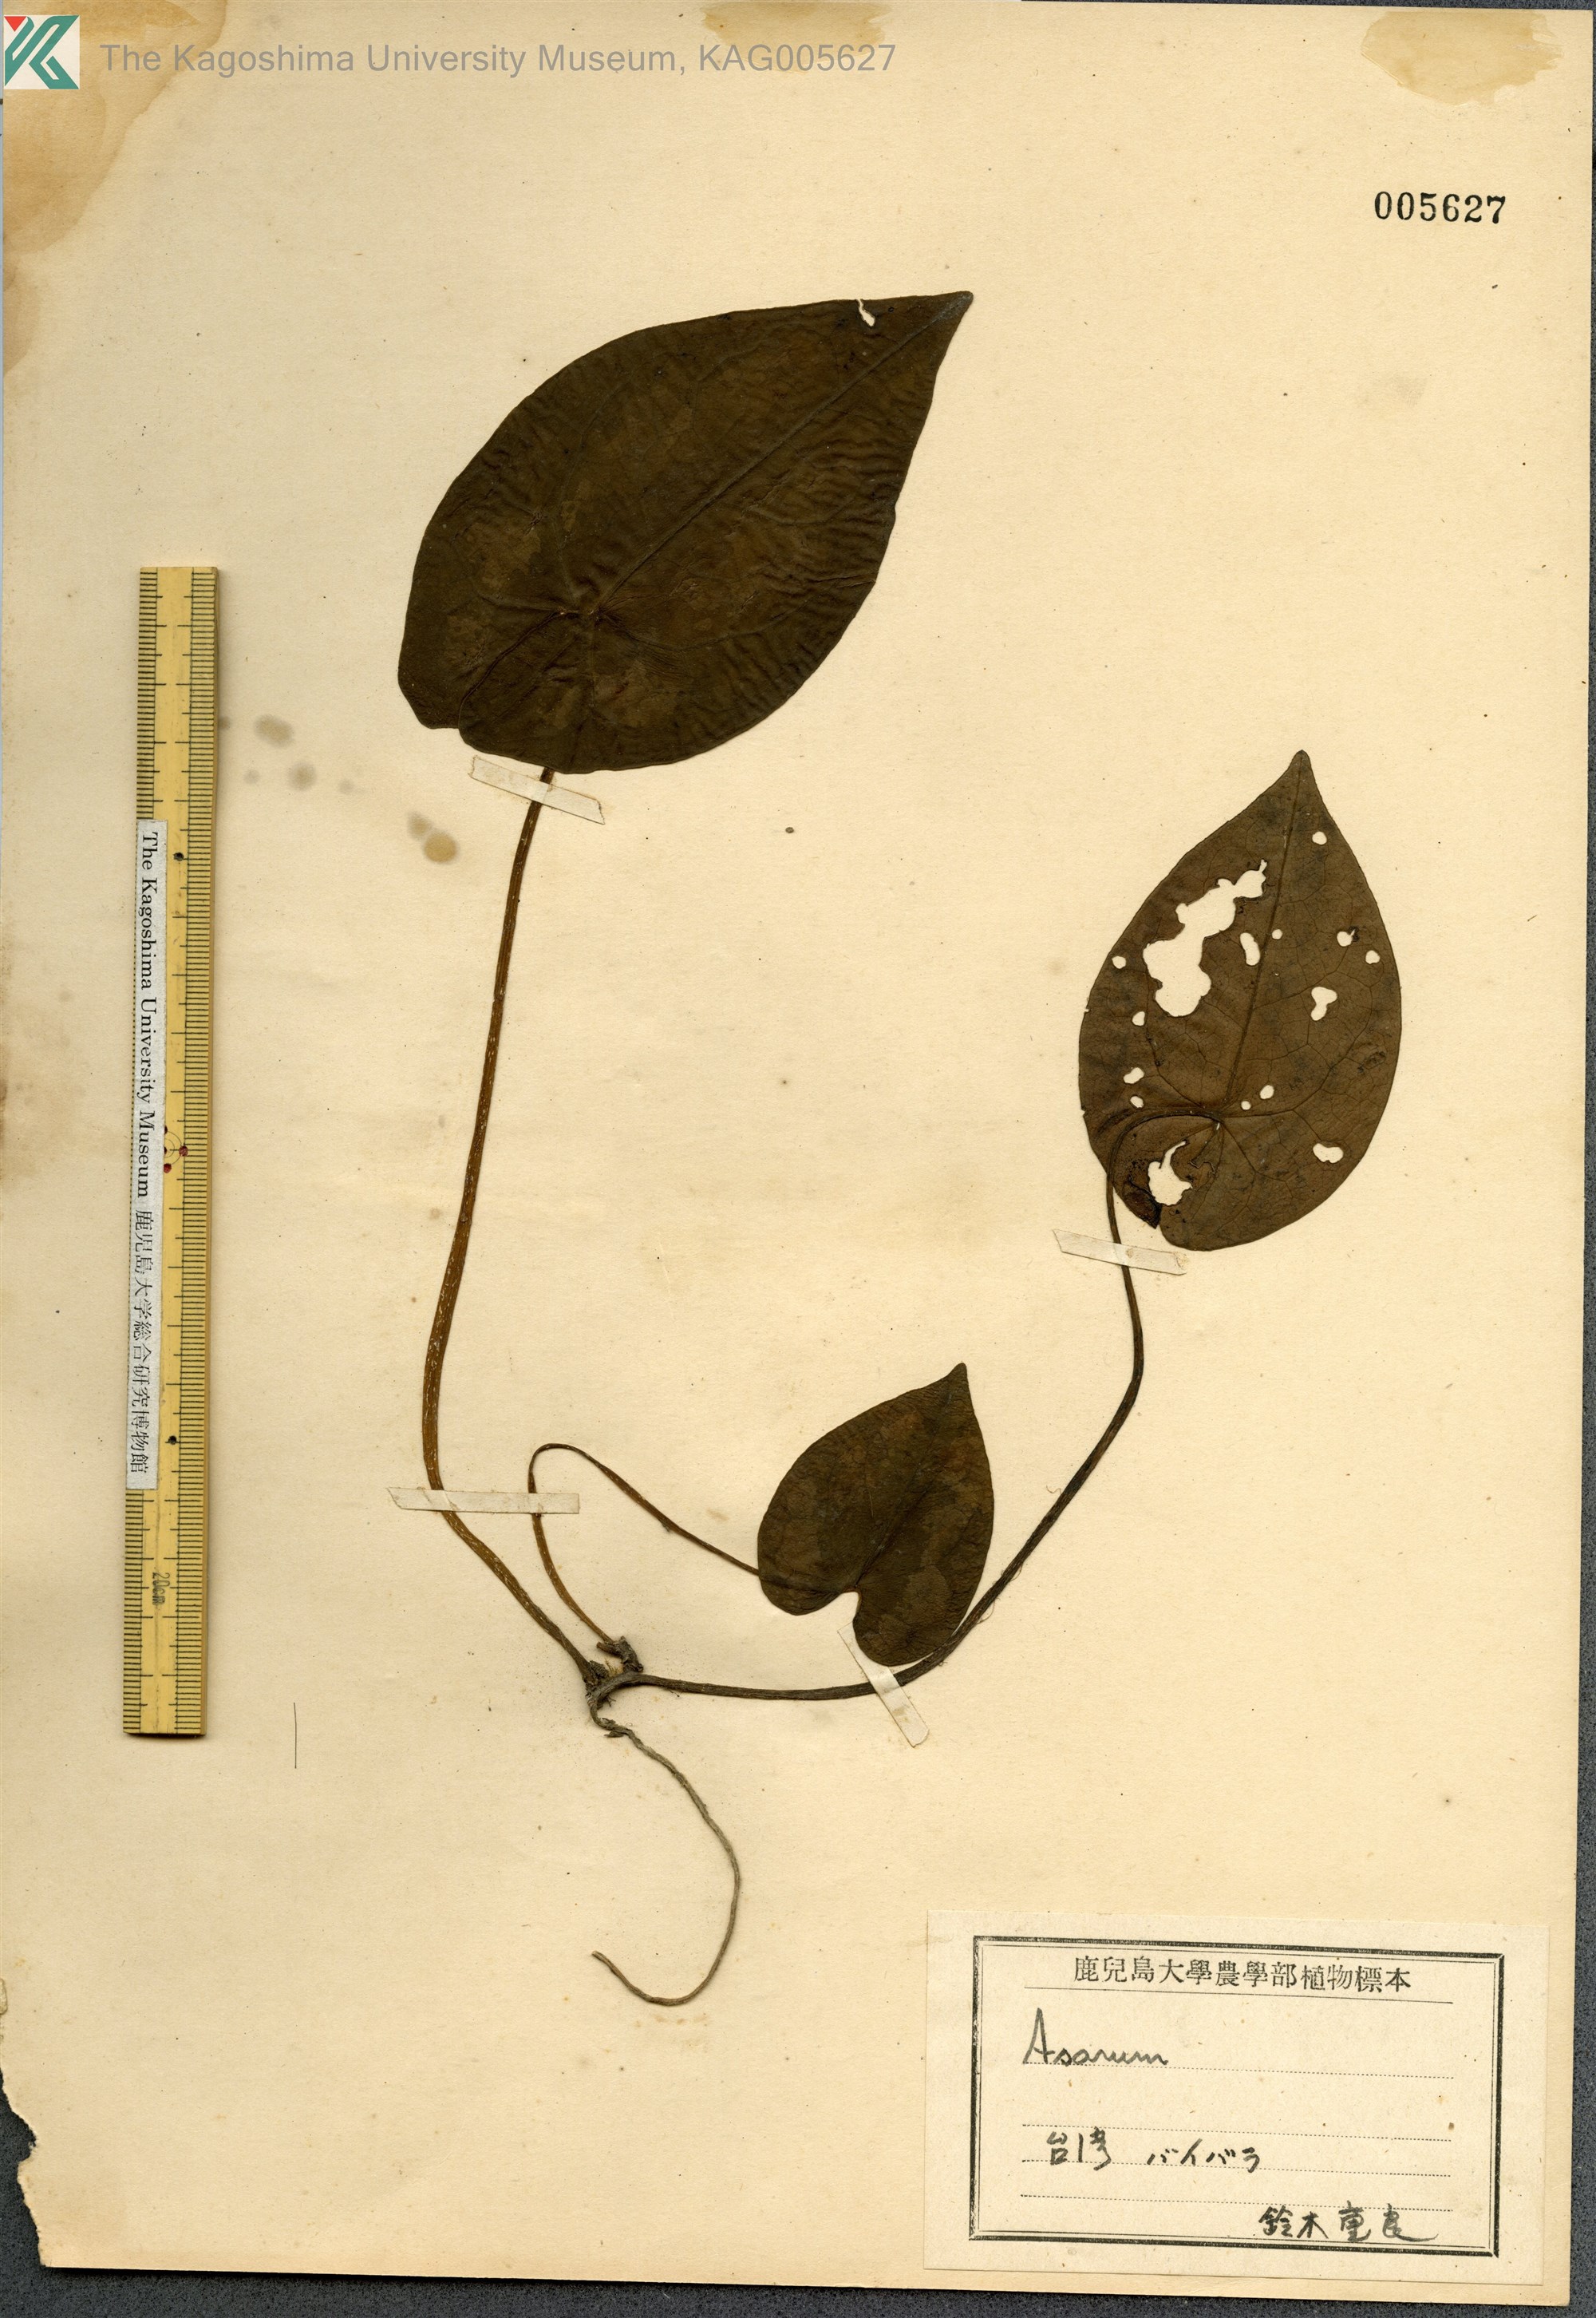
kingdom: Plantae
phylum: Tracheophyta
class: Magnoliopsida
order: Piperales
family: Aristolochiaceae
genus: Asarum
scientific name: Asarum macranthum
